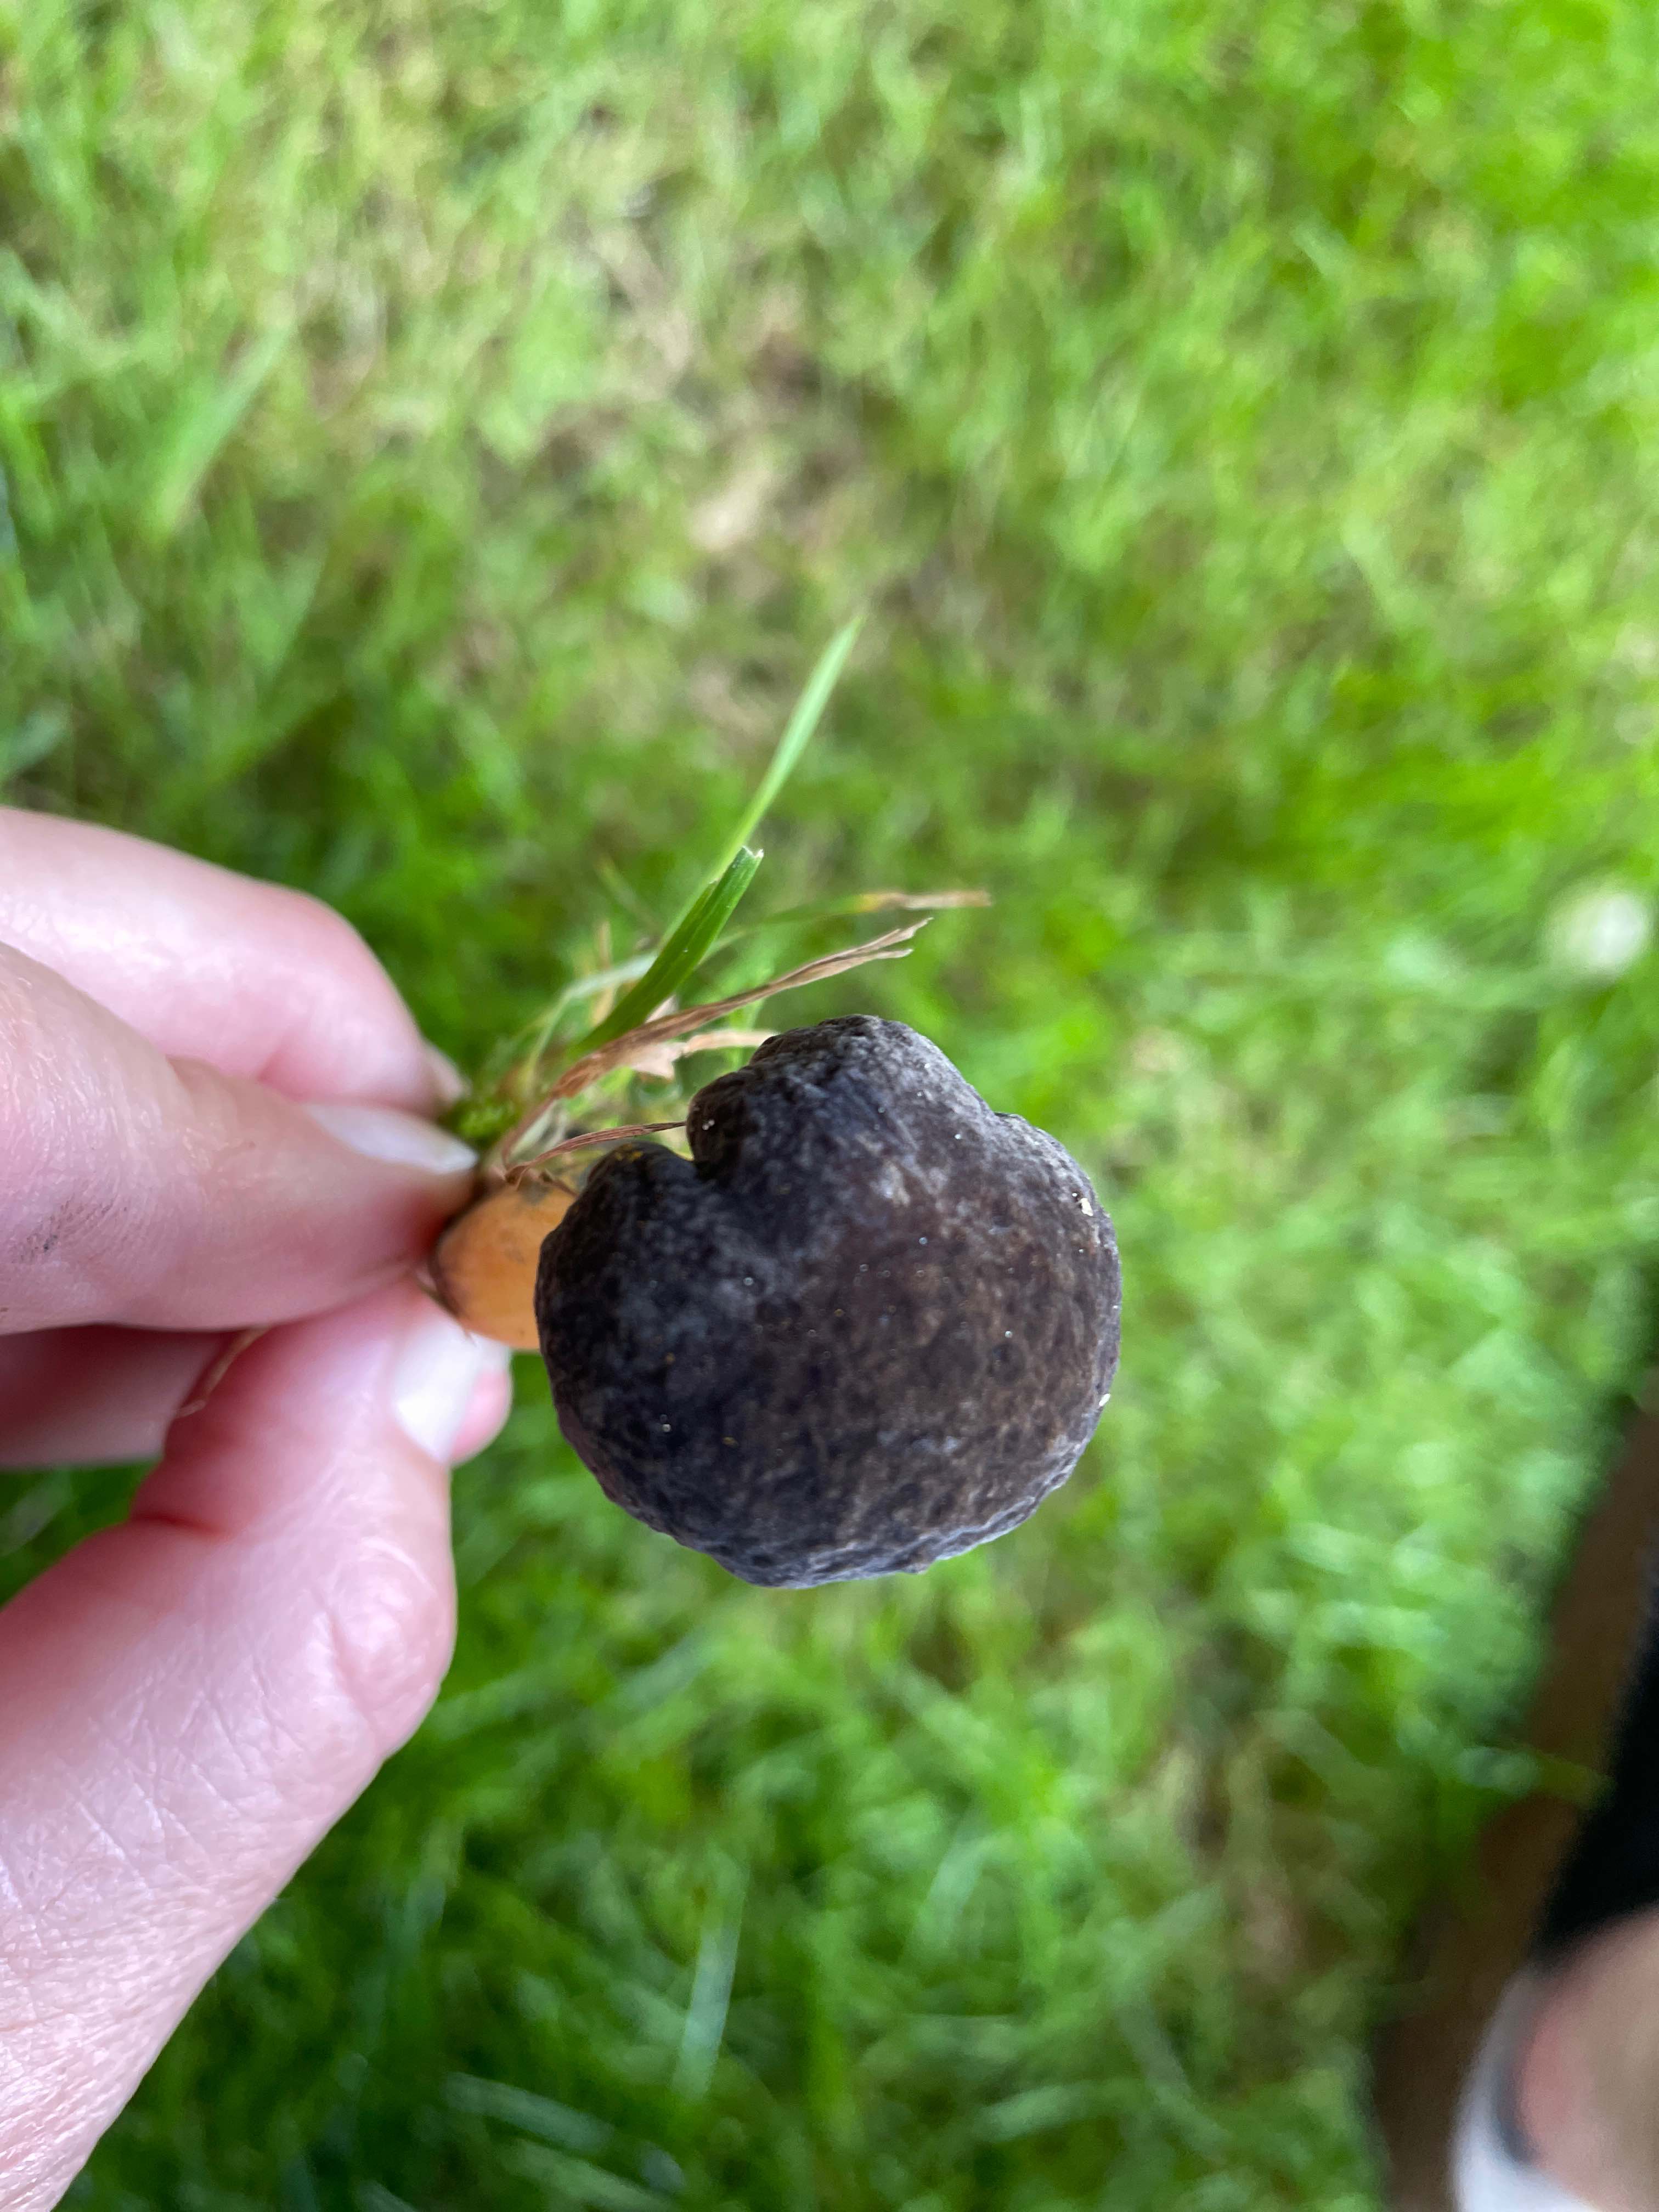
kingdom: Fungi
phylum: Basidiomycota
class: Agaricomycetes
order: Boletales
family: Boletaceae
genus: Xerocomellus
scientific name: Xerocomellus cisalpinus
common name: finsprukken rørhat
